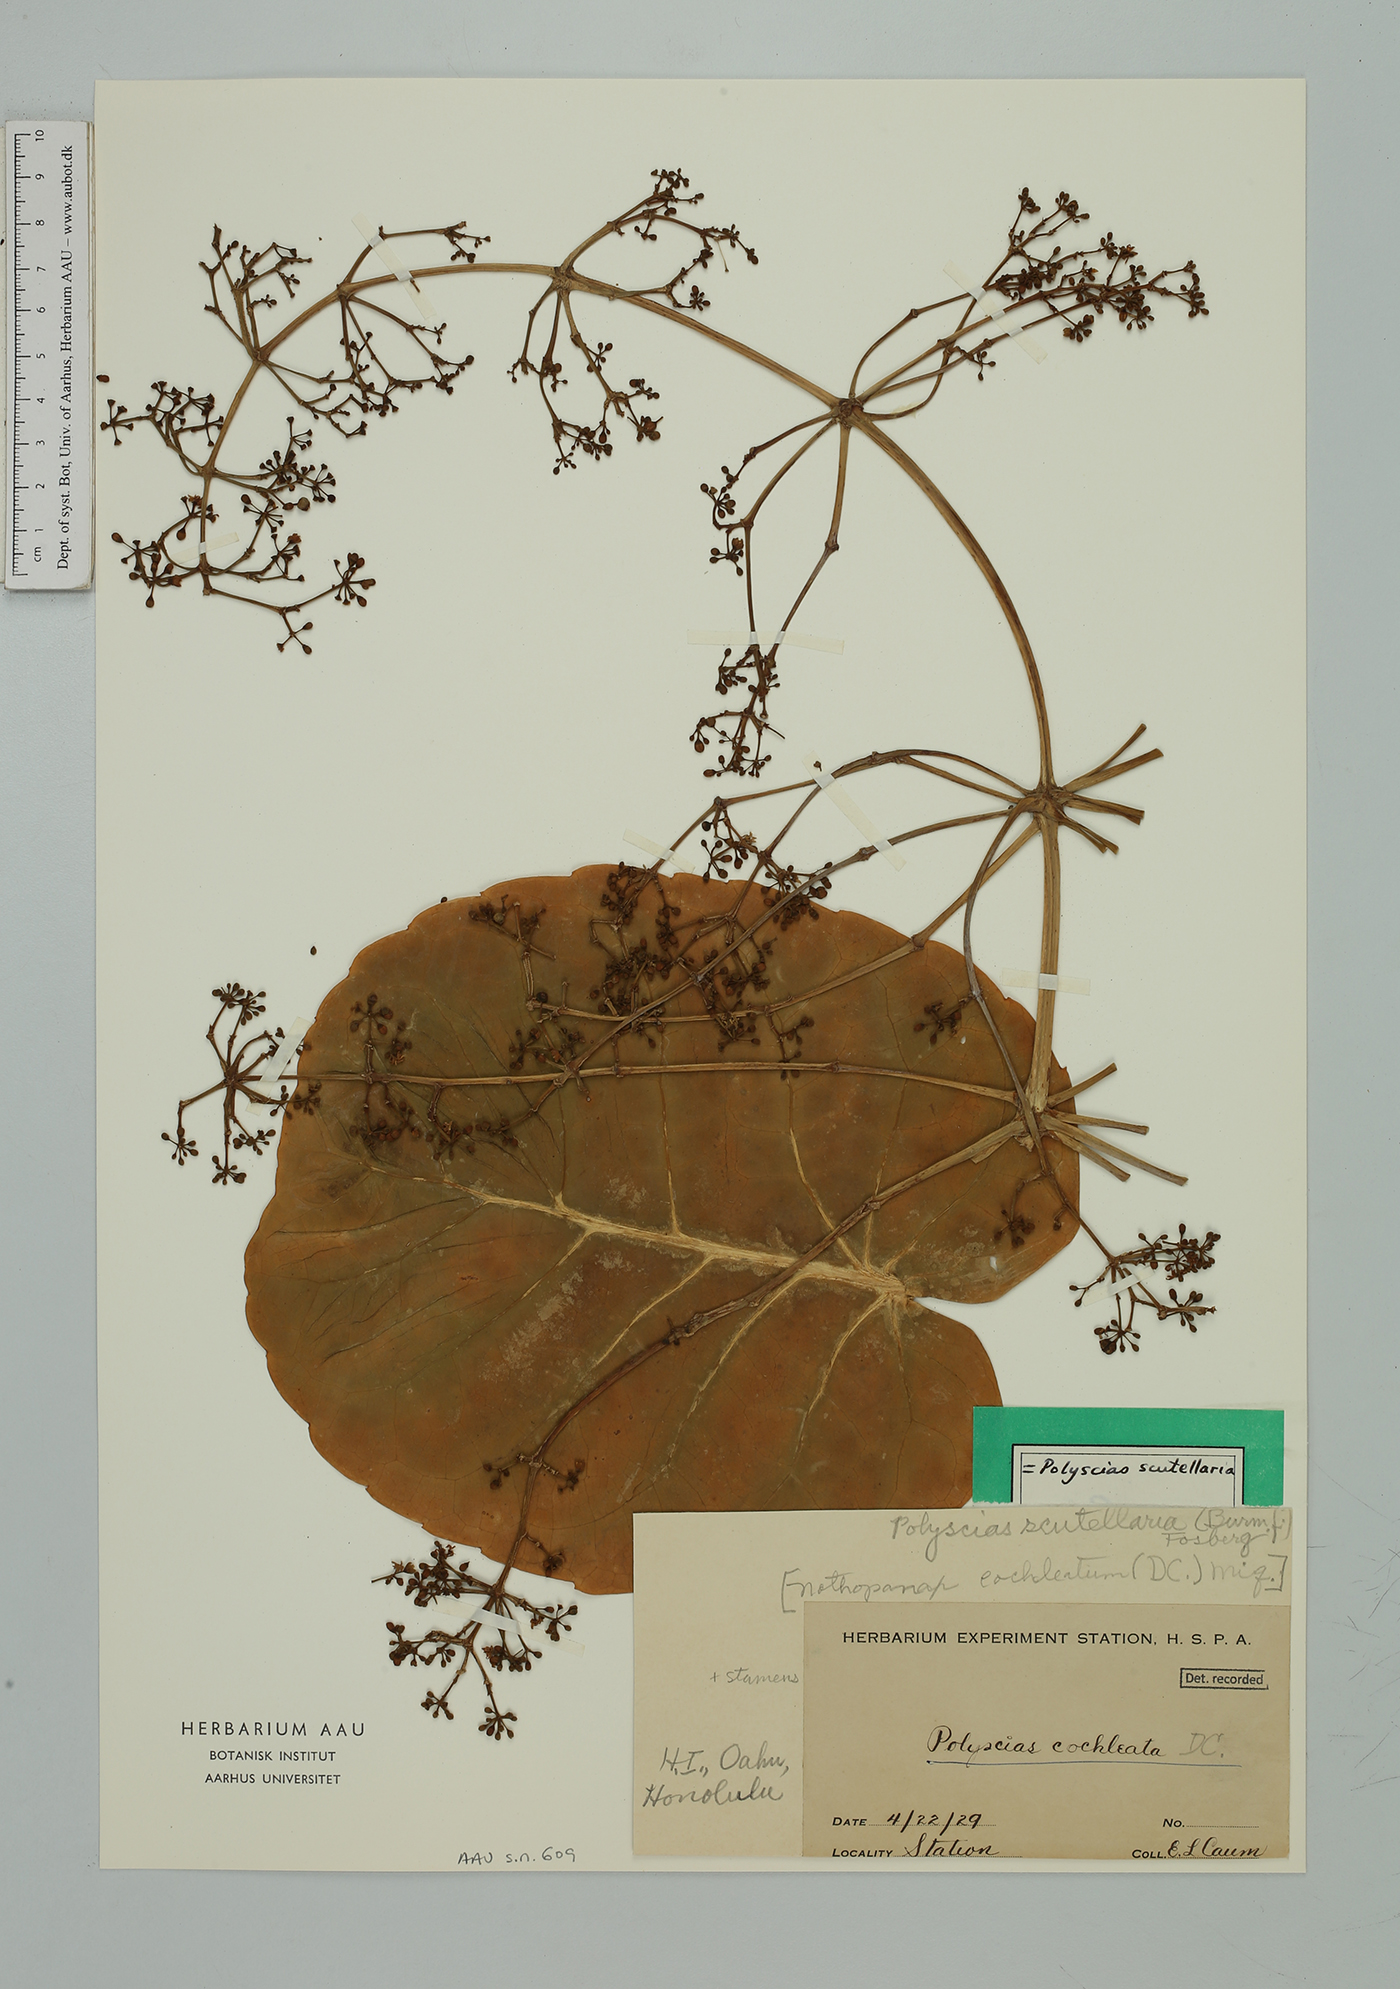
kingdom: Plantae
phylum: Tracheophyta
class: Magnoliopsida
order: Apiales
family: Araliaceae
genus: Polyscias
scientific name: Polyscias scutellaria
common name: Dinnerplate-aralia
